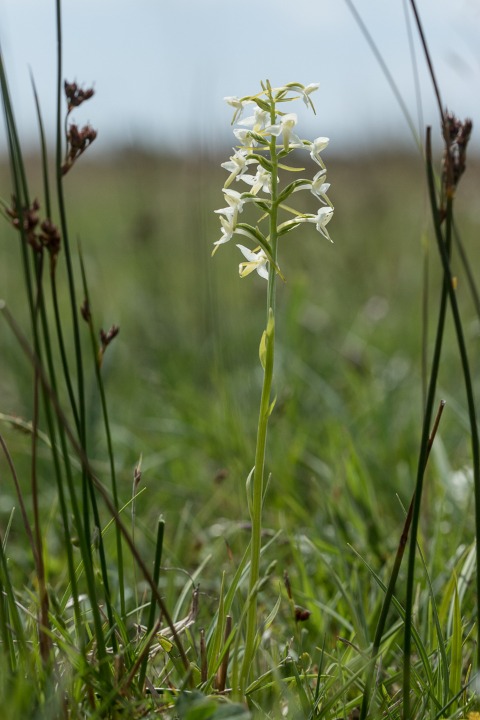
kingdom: Plantae
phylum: Tracheophyta
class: Liliopsida
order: Asparagales
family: Orchidaceae
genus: Platanthera
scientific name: Platanthera bifolia
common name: Bakke-gøgelilje
